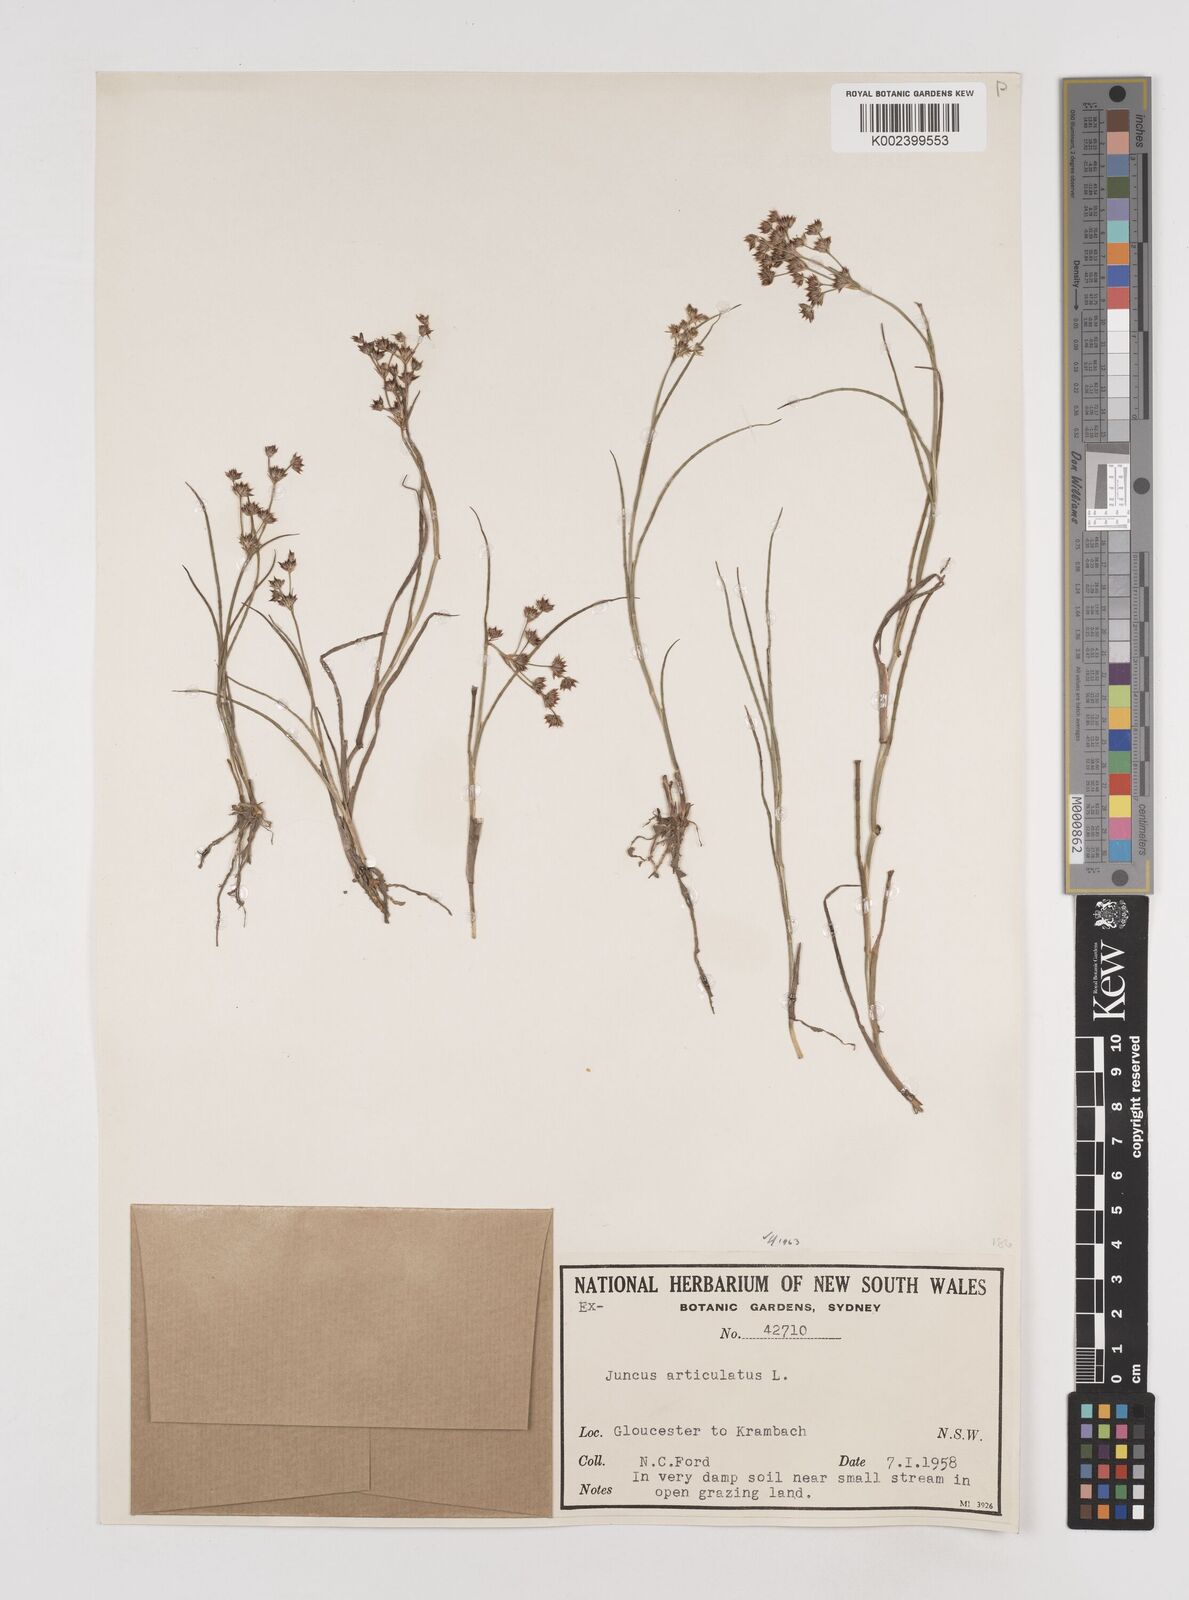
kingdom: Plantae
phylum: Tracheophyta
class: Liliopsida
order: Poales
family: Juncaceae
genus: Juncus
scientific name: Juncus articulatus
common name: Jointed rush
